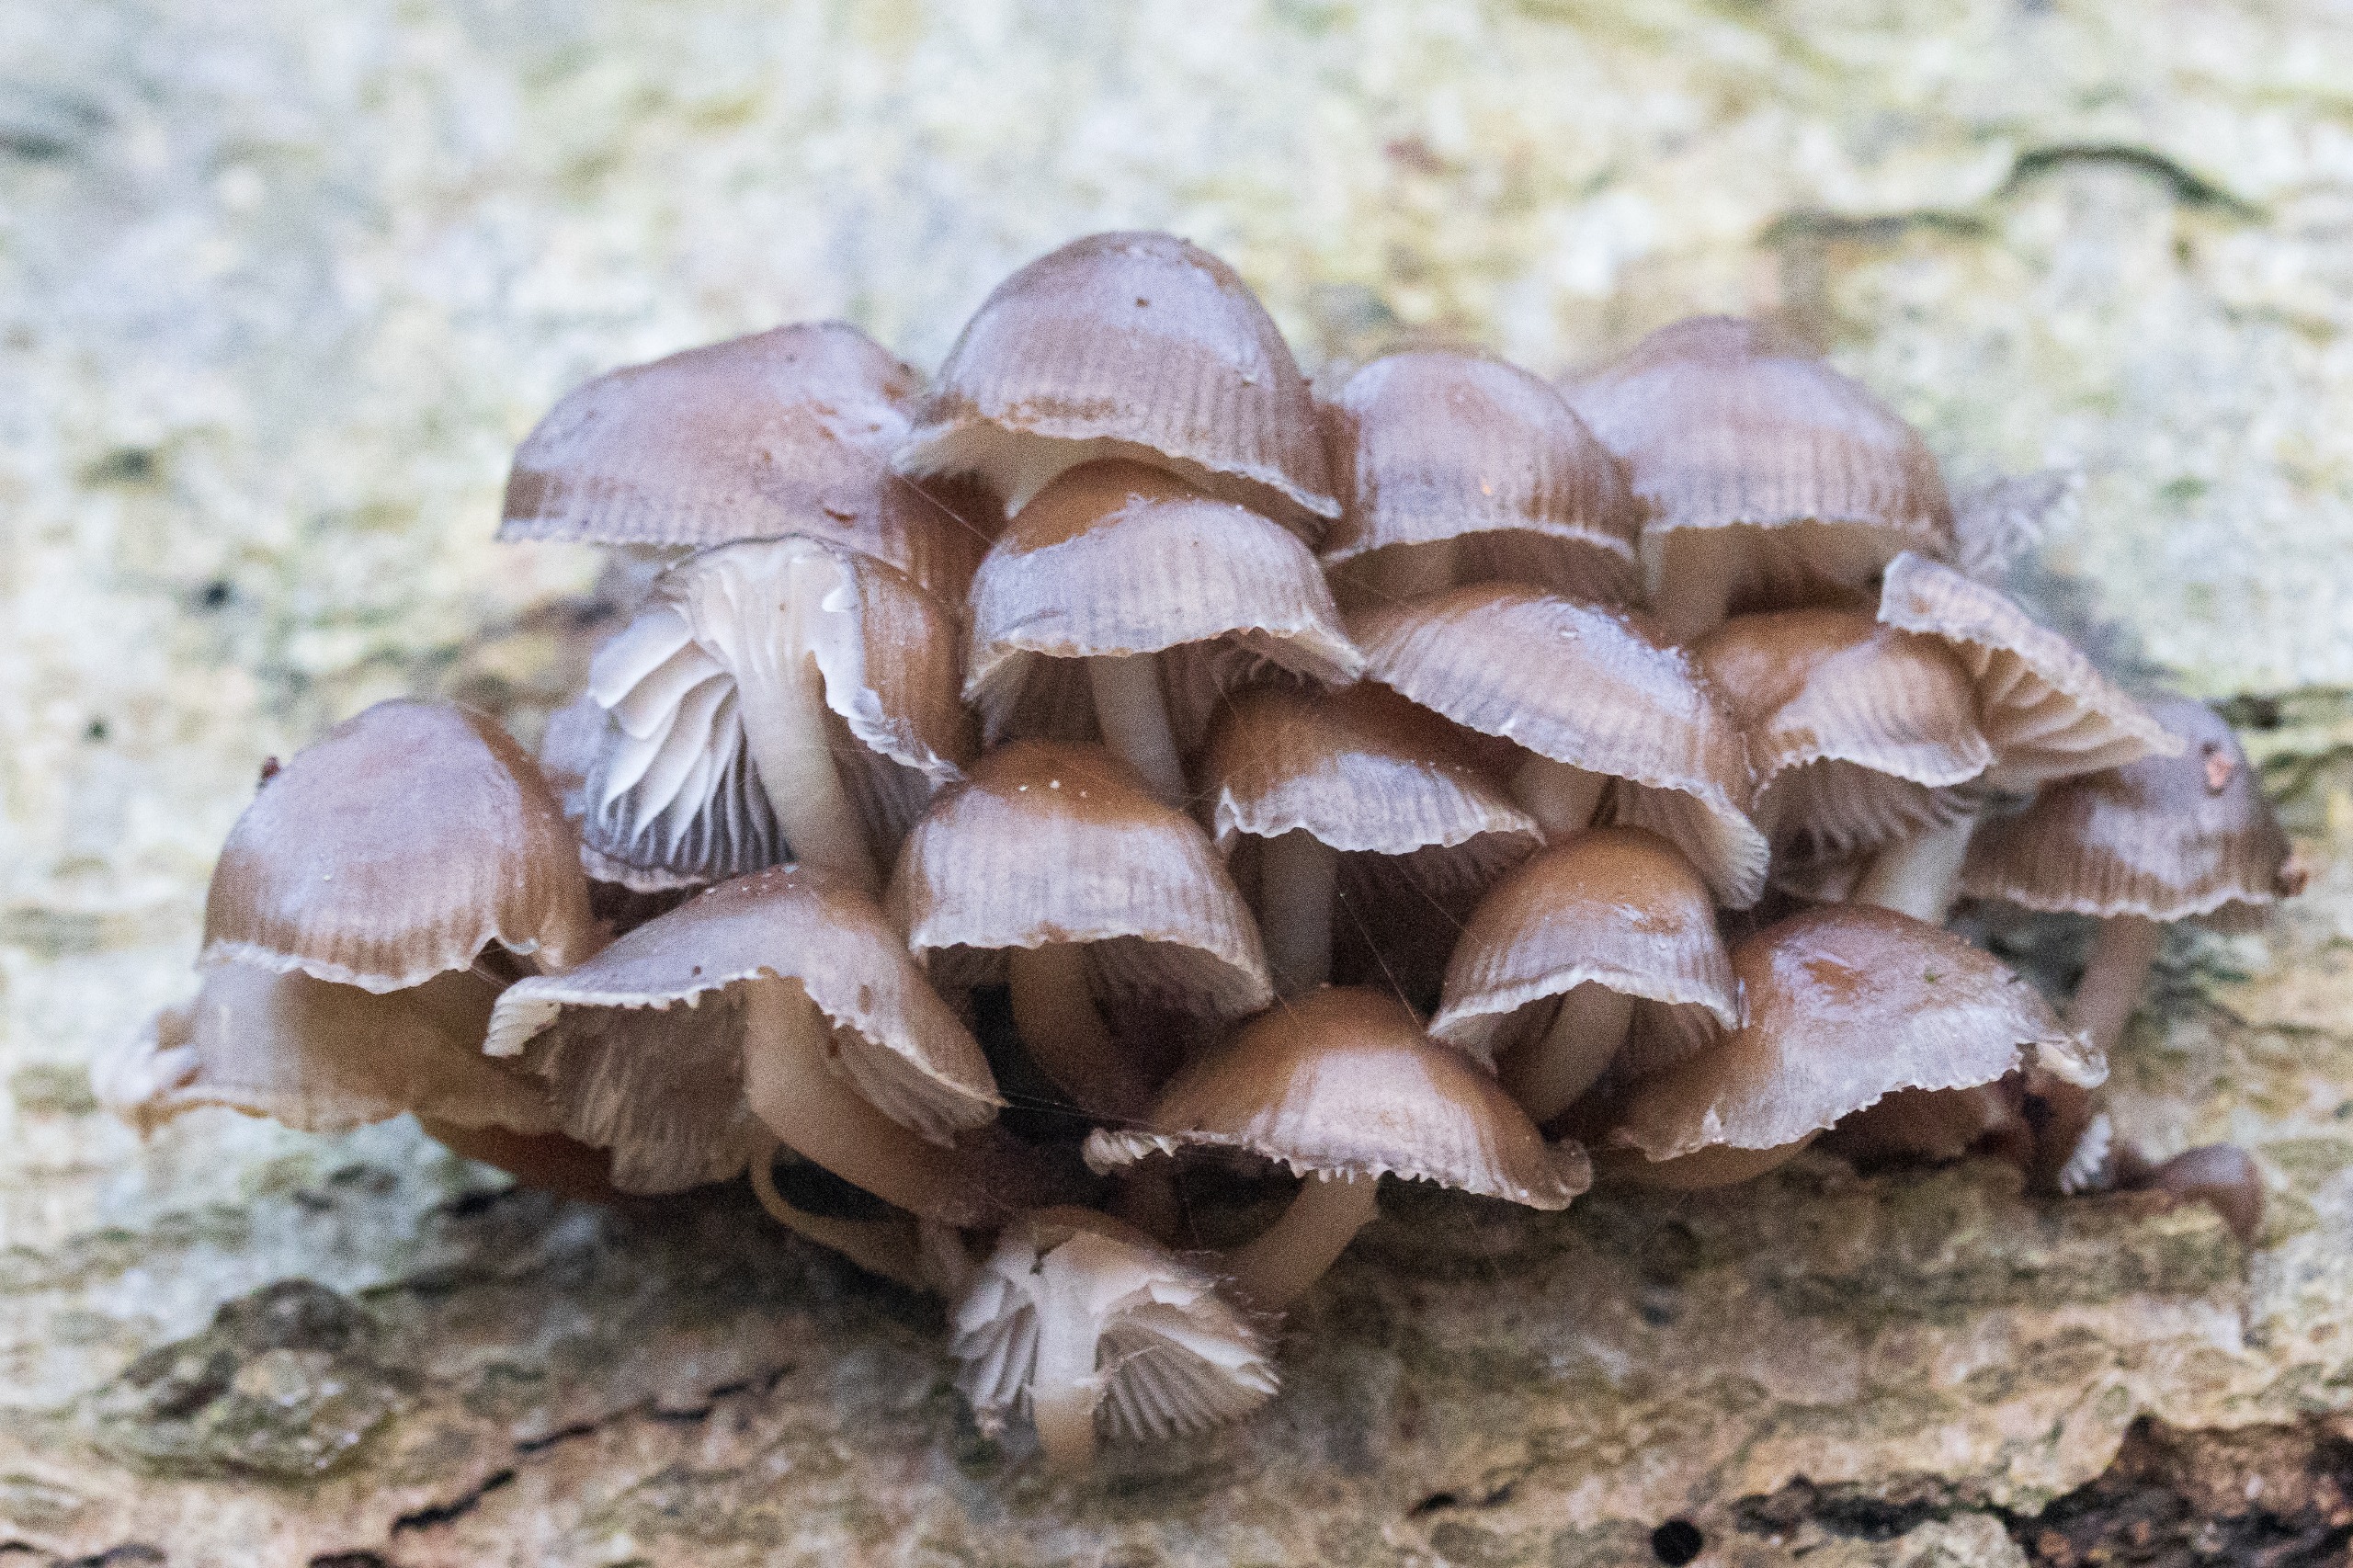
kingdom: Fungi
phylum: Basidiomycota
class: Agaricomycetes
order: Agaricales
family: Mycenaceae
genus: Mycena
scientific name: Mycena tintinnabulum
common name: Vinter-huesvamp
